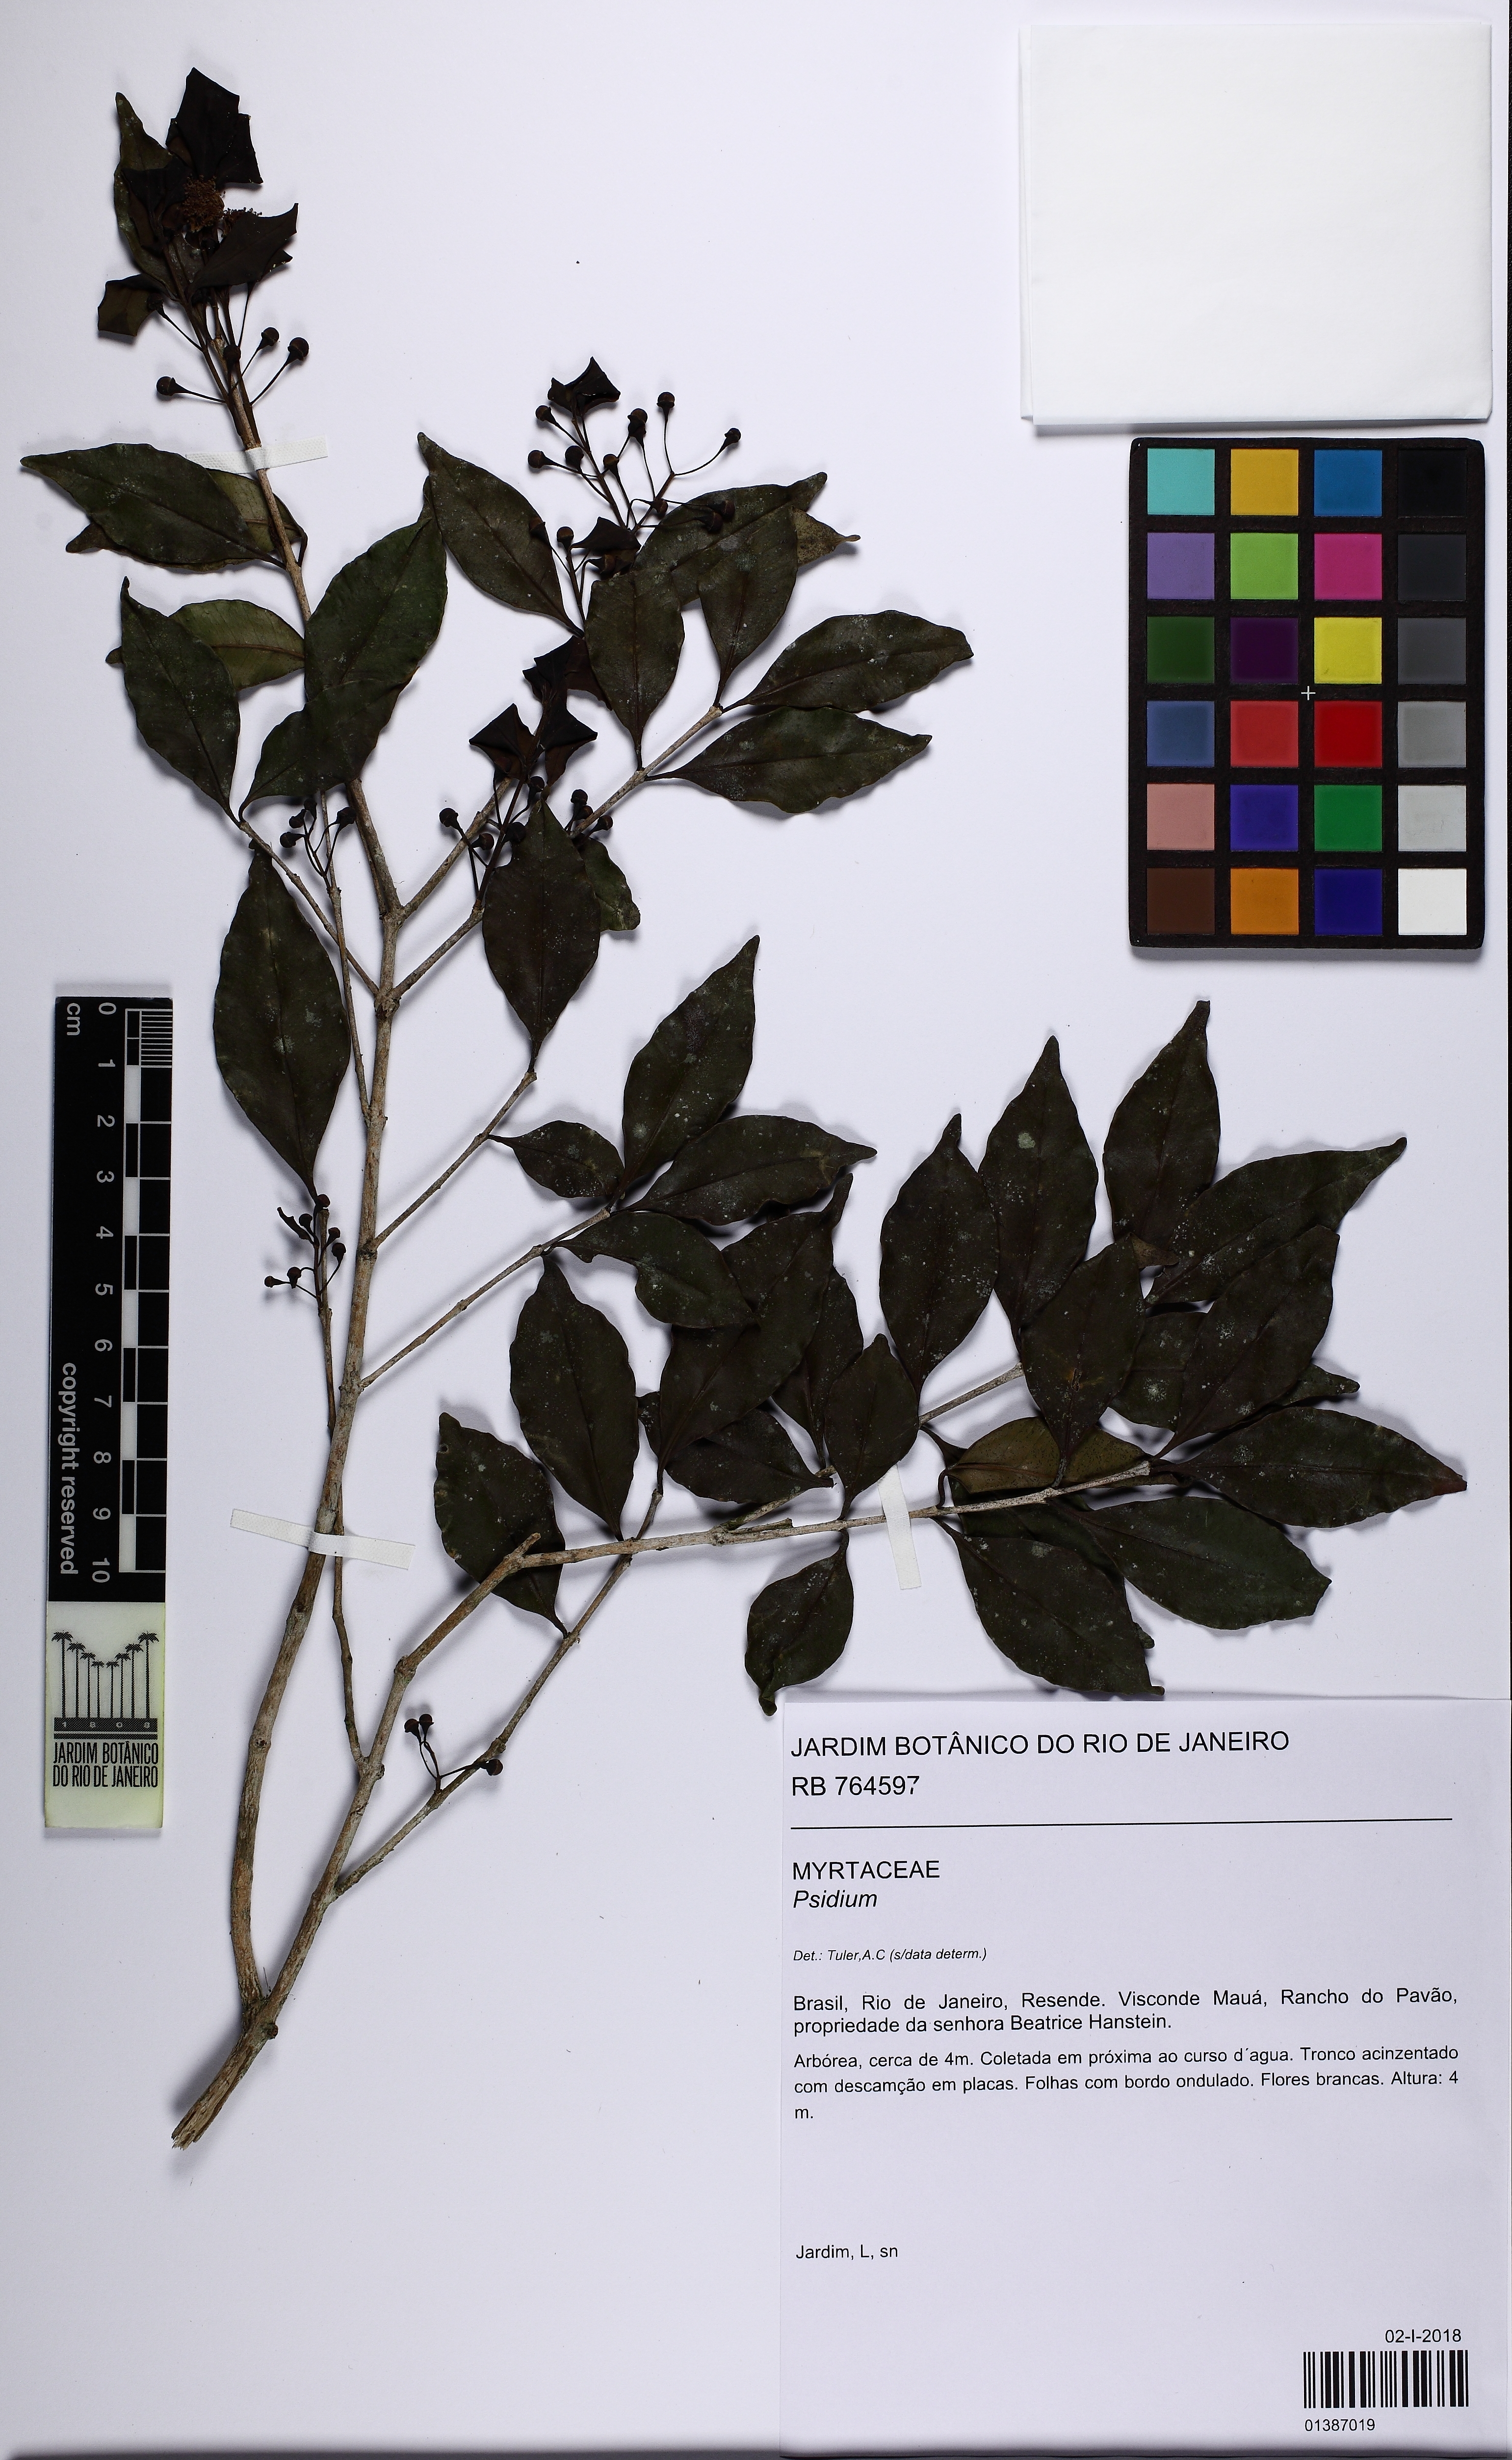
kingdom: Plantae
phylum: Tracheophyta
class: Magnoliopsida
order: Myrtales
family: Myrtaceae
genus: Psidium
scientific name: Psidium involutisepalum
